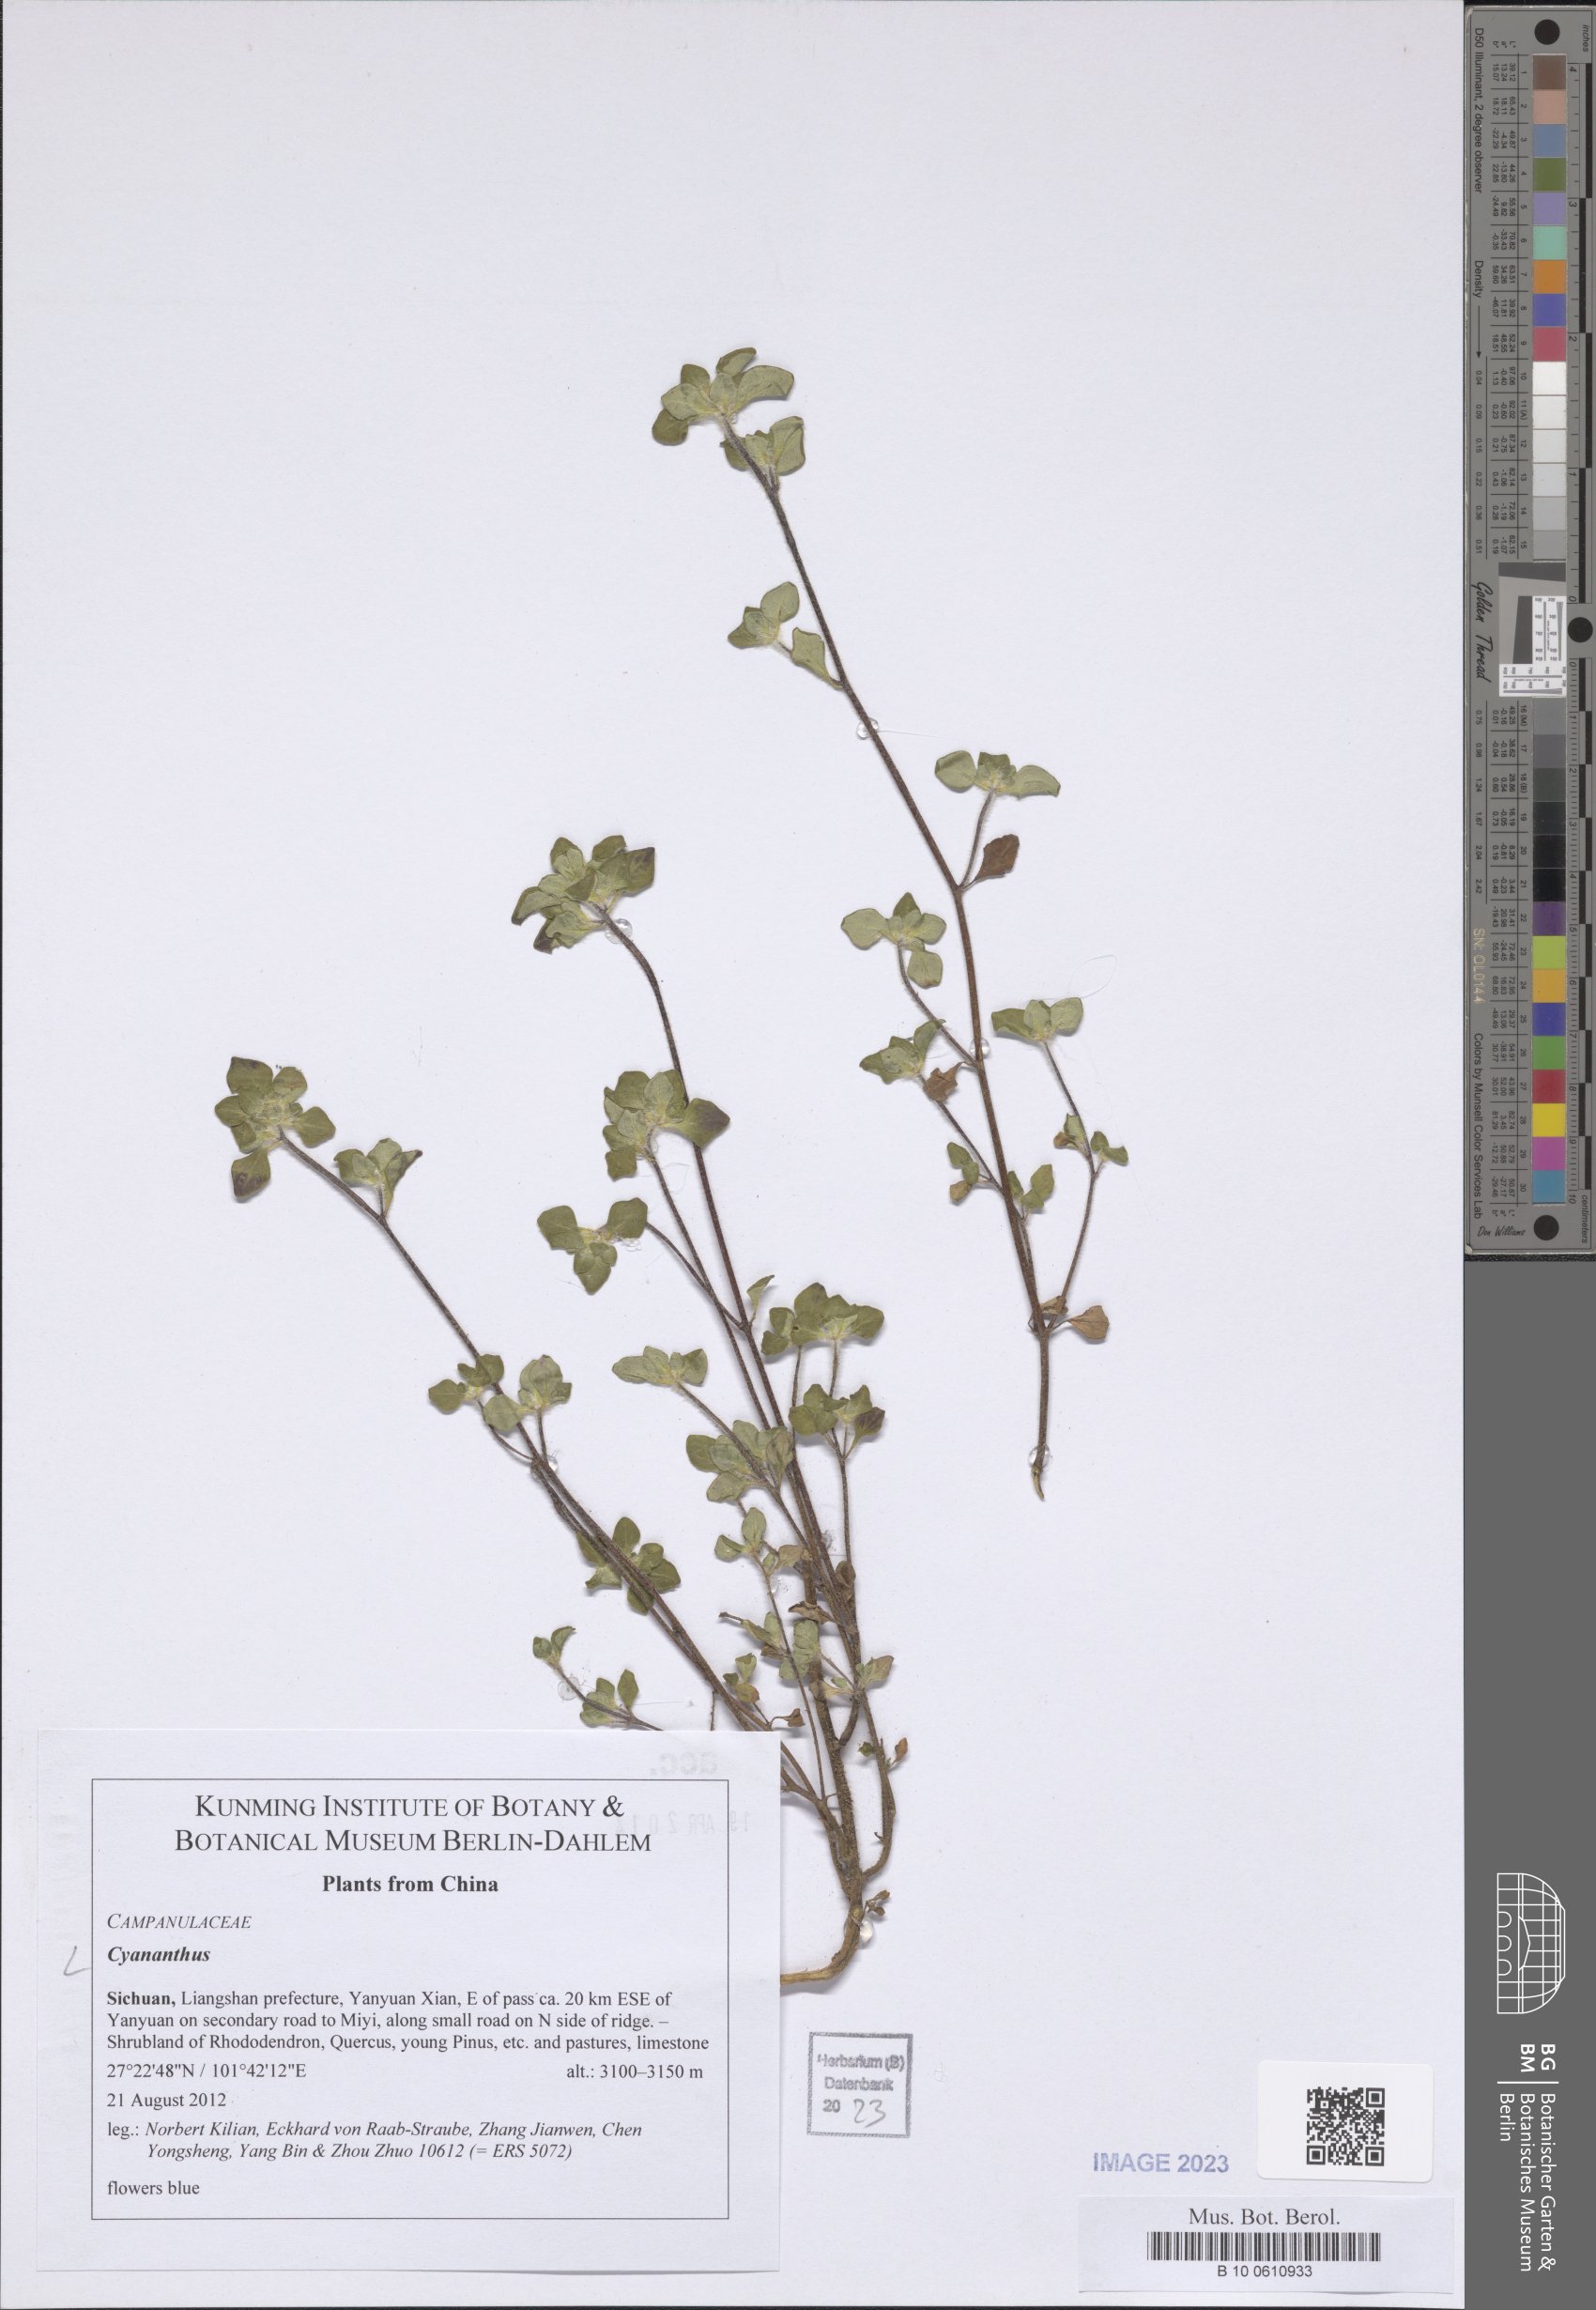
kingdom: Plantae
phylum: Tracheophyta
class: Magnoliopsida
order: Asterales
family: Campanulaceae
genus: Cyananthus
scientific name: Cyananthus
